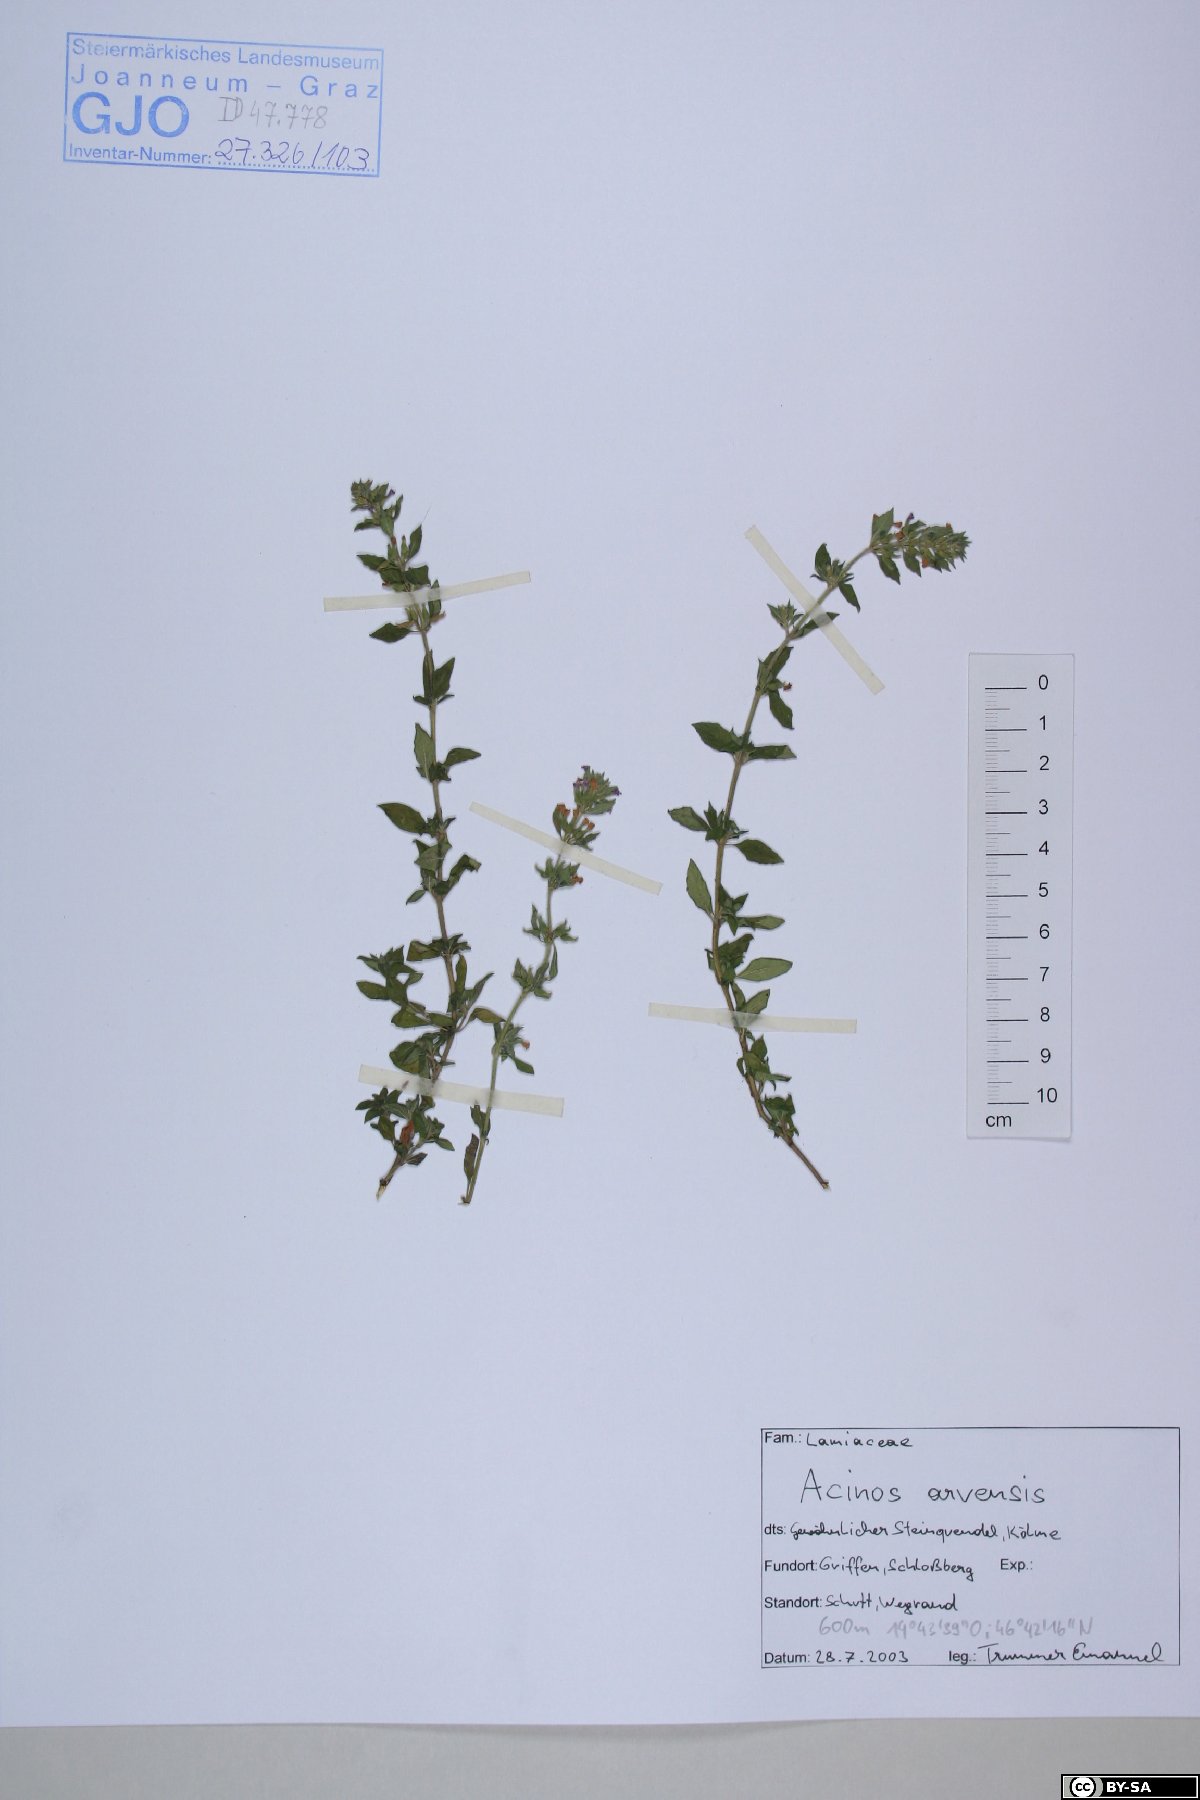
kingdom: Plantae
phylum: Tracheophyta
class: Magnoliopsida
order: Lamiales
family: Lamiaceae
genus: Clinopodium
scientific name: Clinopodium acinos
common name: Basil thyme
